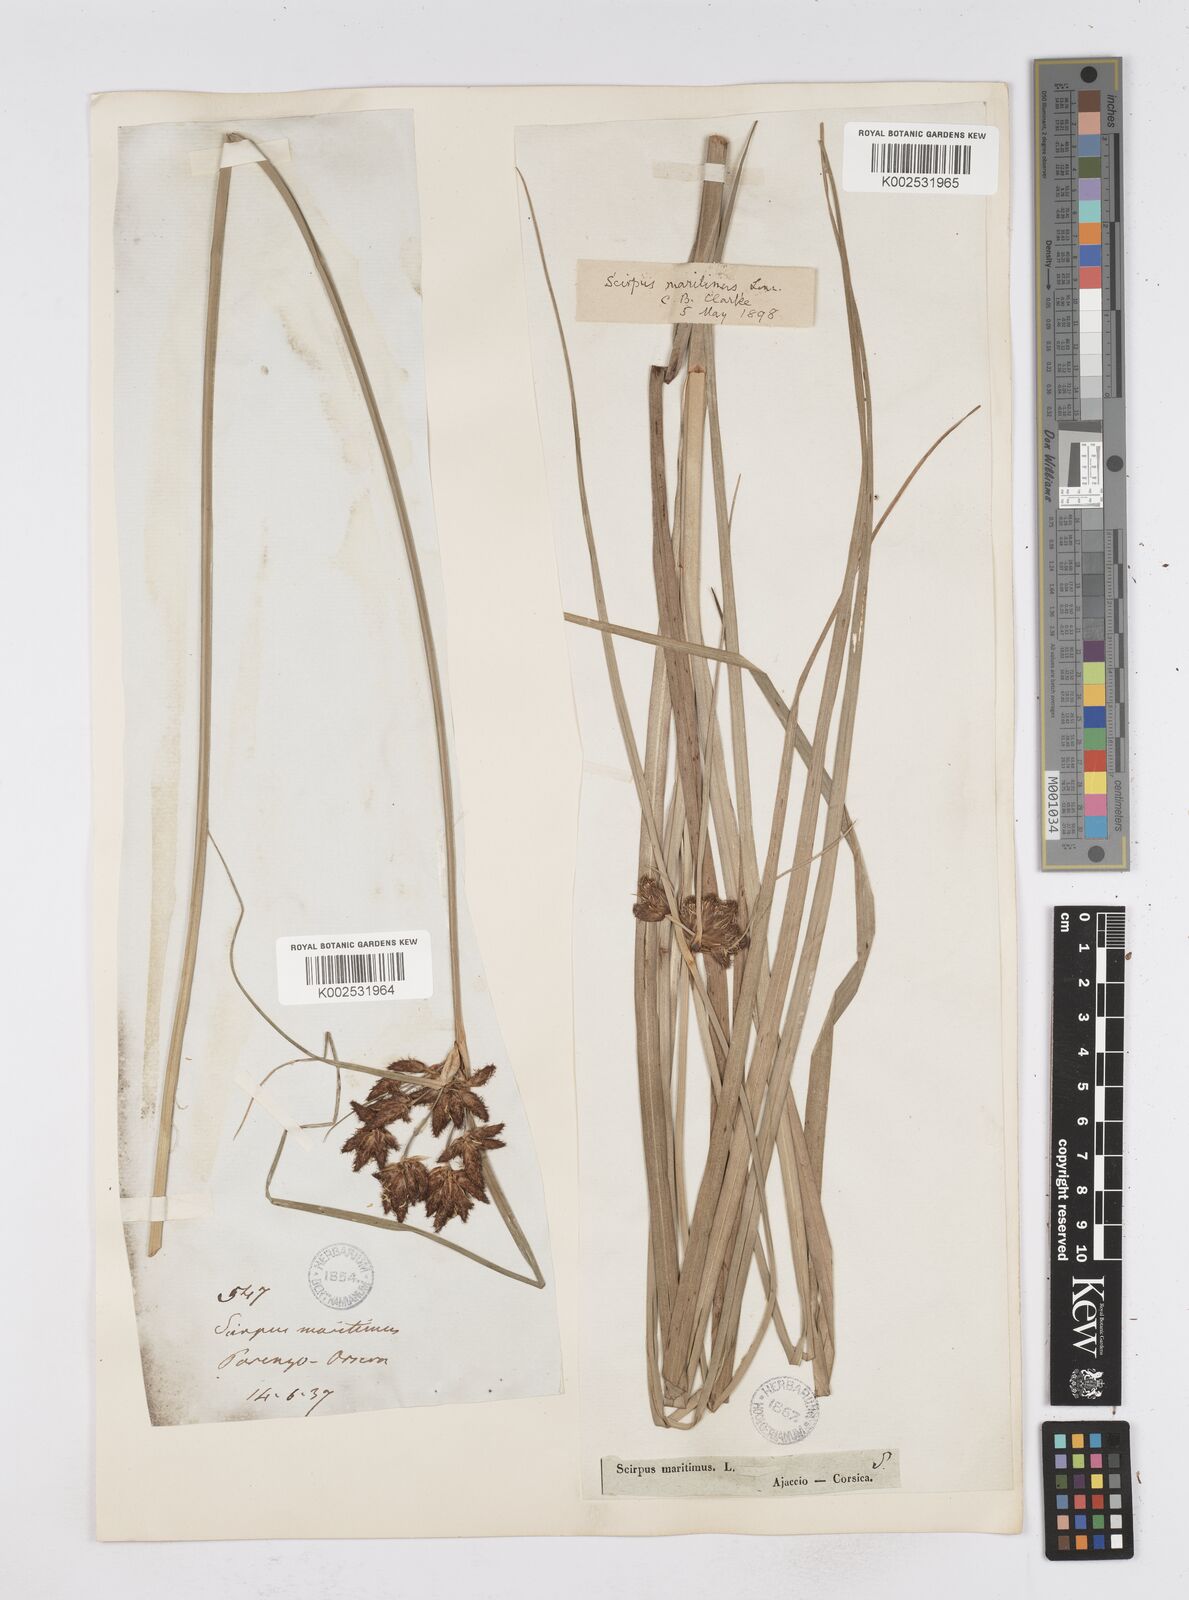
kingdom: Plantae
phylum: Tracheophyta
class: Liliopsida
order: Poales
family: Cyperaceae
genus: Bolboschoenus
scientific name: Bolboschoenus maritimus
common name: Sea club-rush
